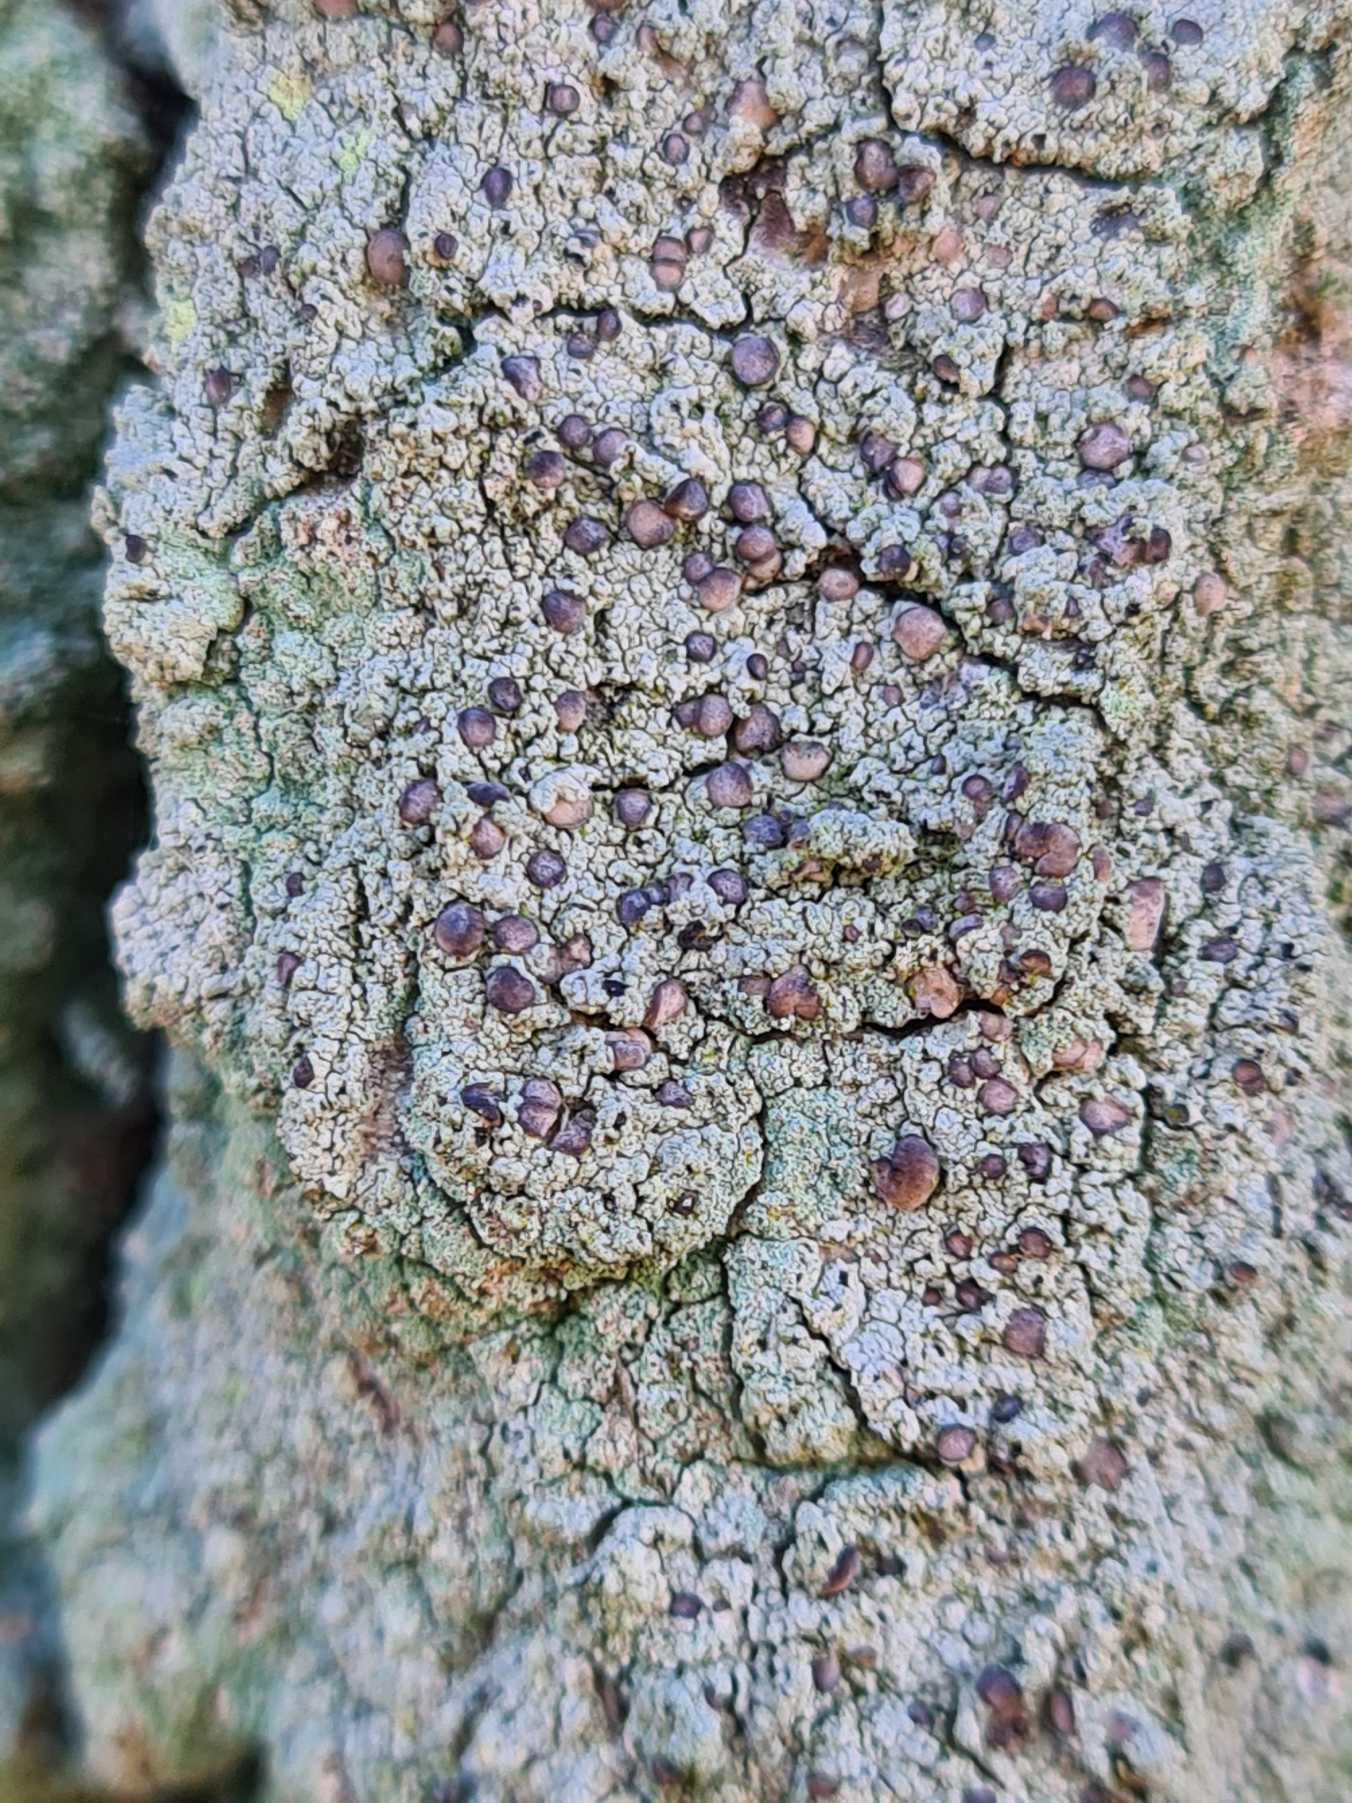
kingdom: Fungi
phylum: Ascomycota
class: Lecanoromycetes
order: Lecanorales
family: Ramalinaceae
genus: Cliostomum
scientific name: Cliostomum griffithii
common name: Trefarvet tensporelav
